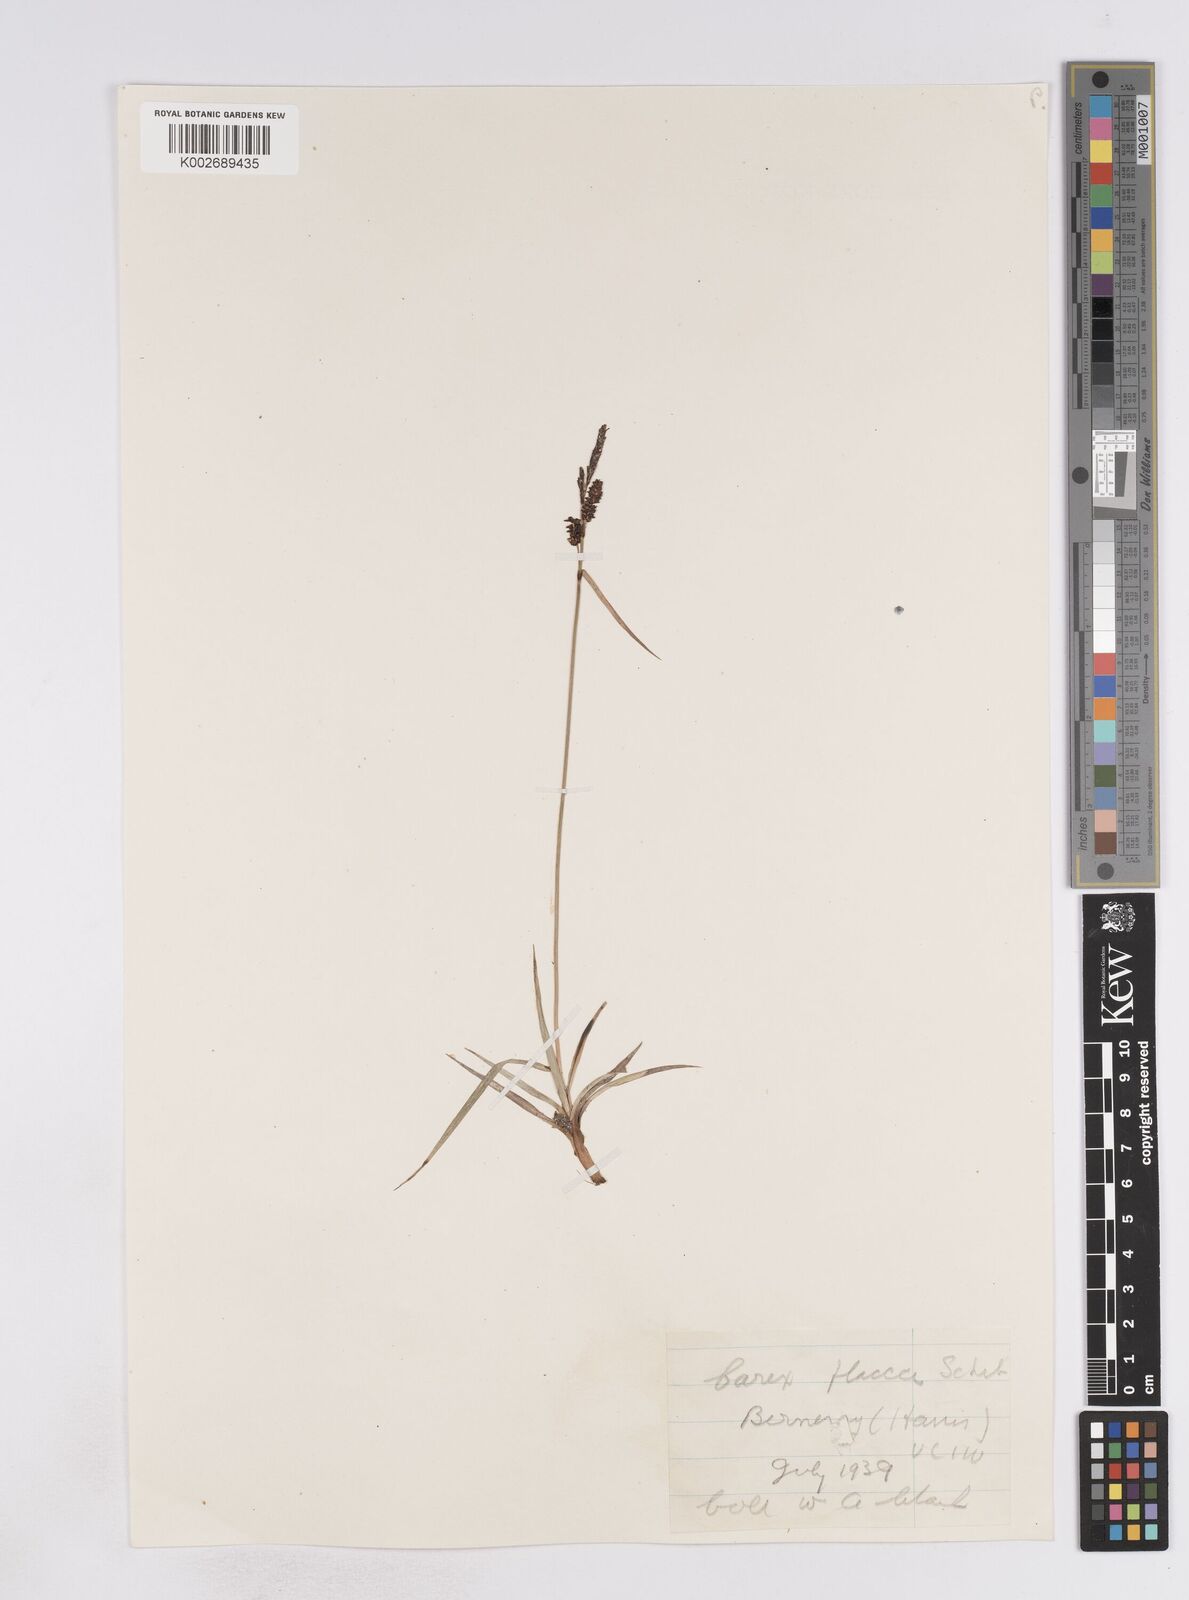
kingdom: Plantae
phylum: Tracheophyta
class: Liliopsida
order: Poales
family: Cyperaceae
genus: Carex
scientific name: Carex flacca
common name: Glaucous sedge
